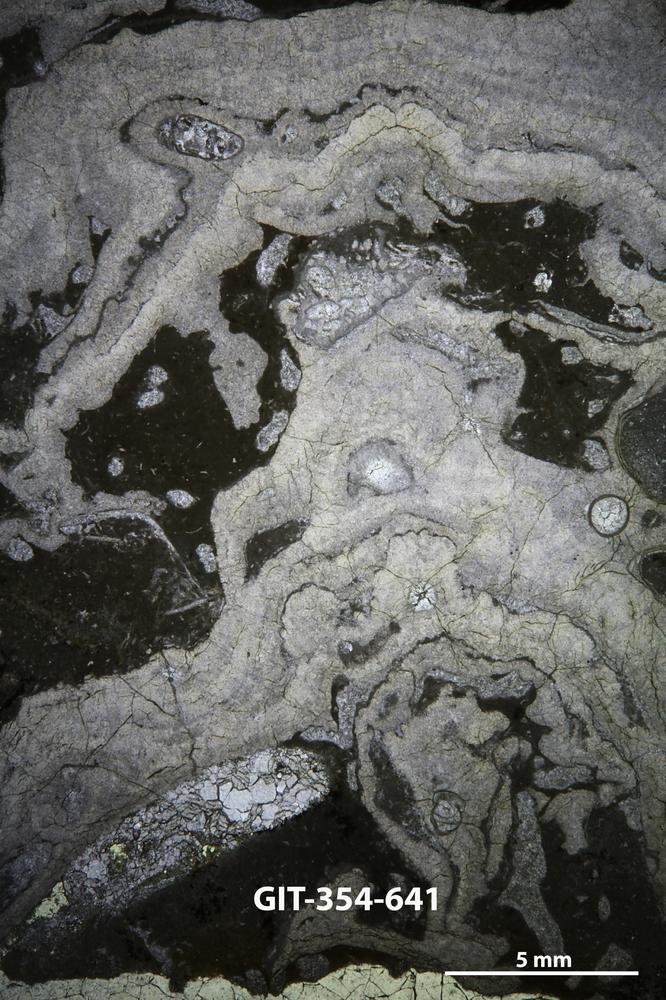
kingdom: Animalia
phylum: Porifera
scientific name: Porifera
